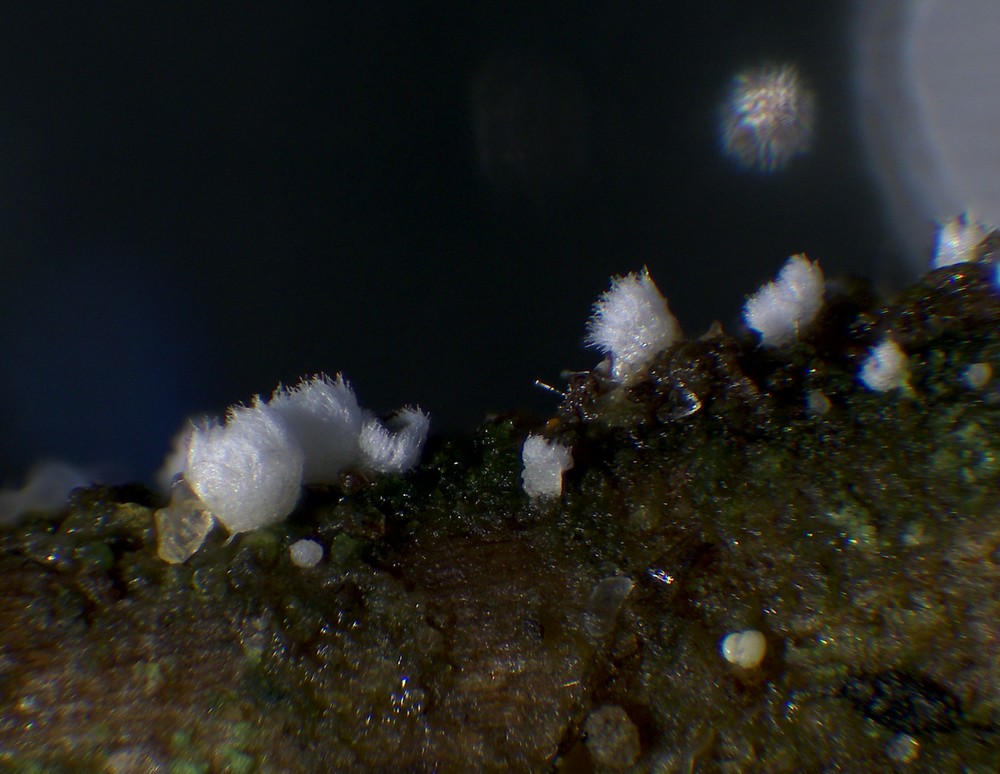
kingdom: Fungi
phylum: Basidiomycota
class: Agaricomycetes
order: Agaricales
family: Niaceae
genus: Flagelloscypha
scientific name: Flagelloscypha minutissima
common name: lille hængeskål
